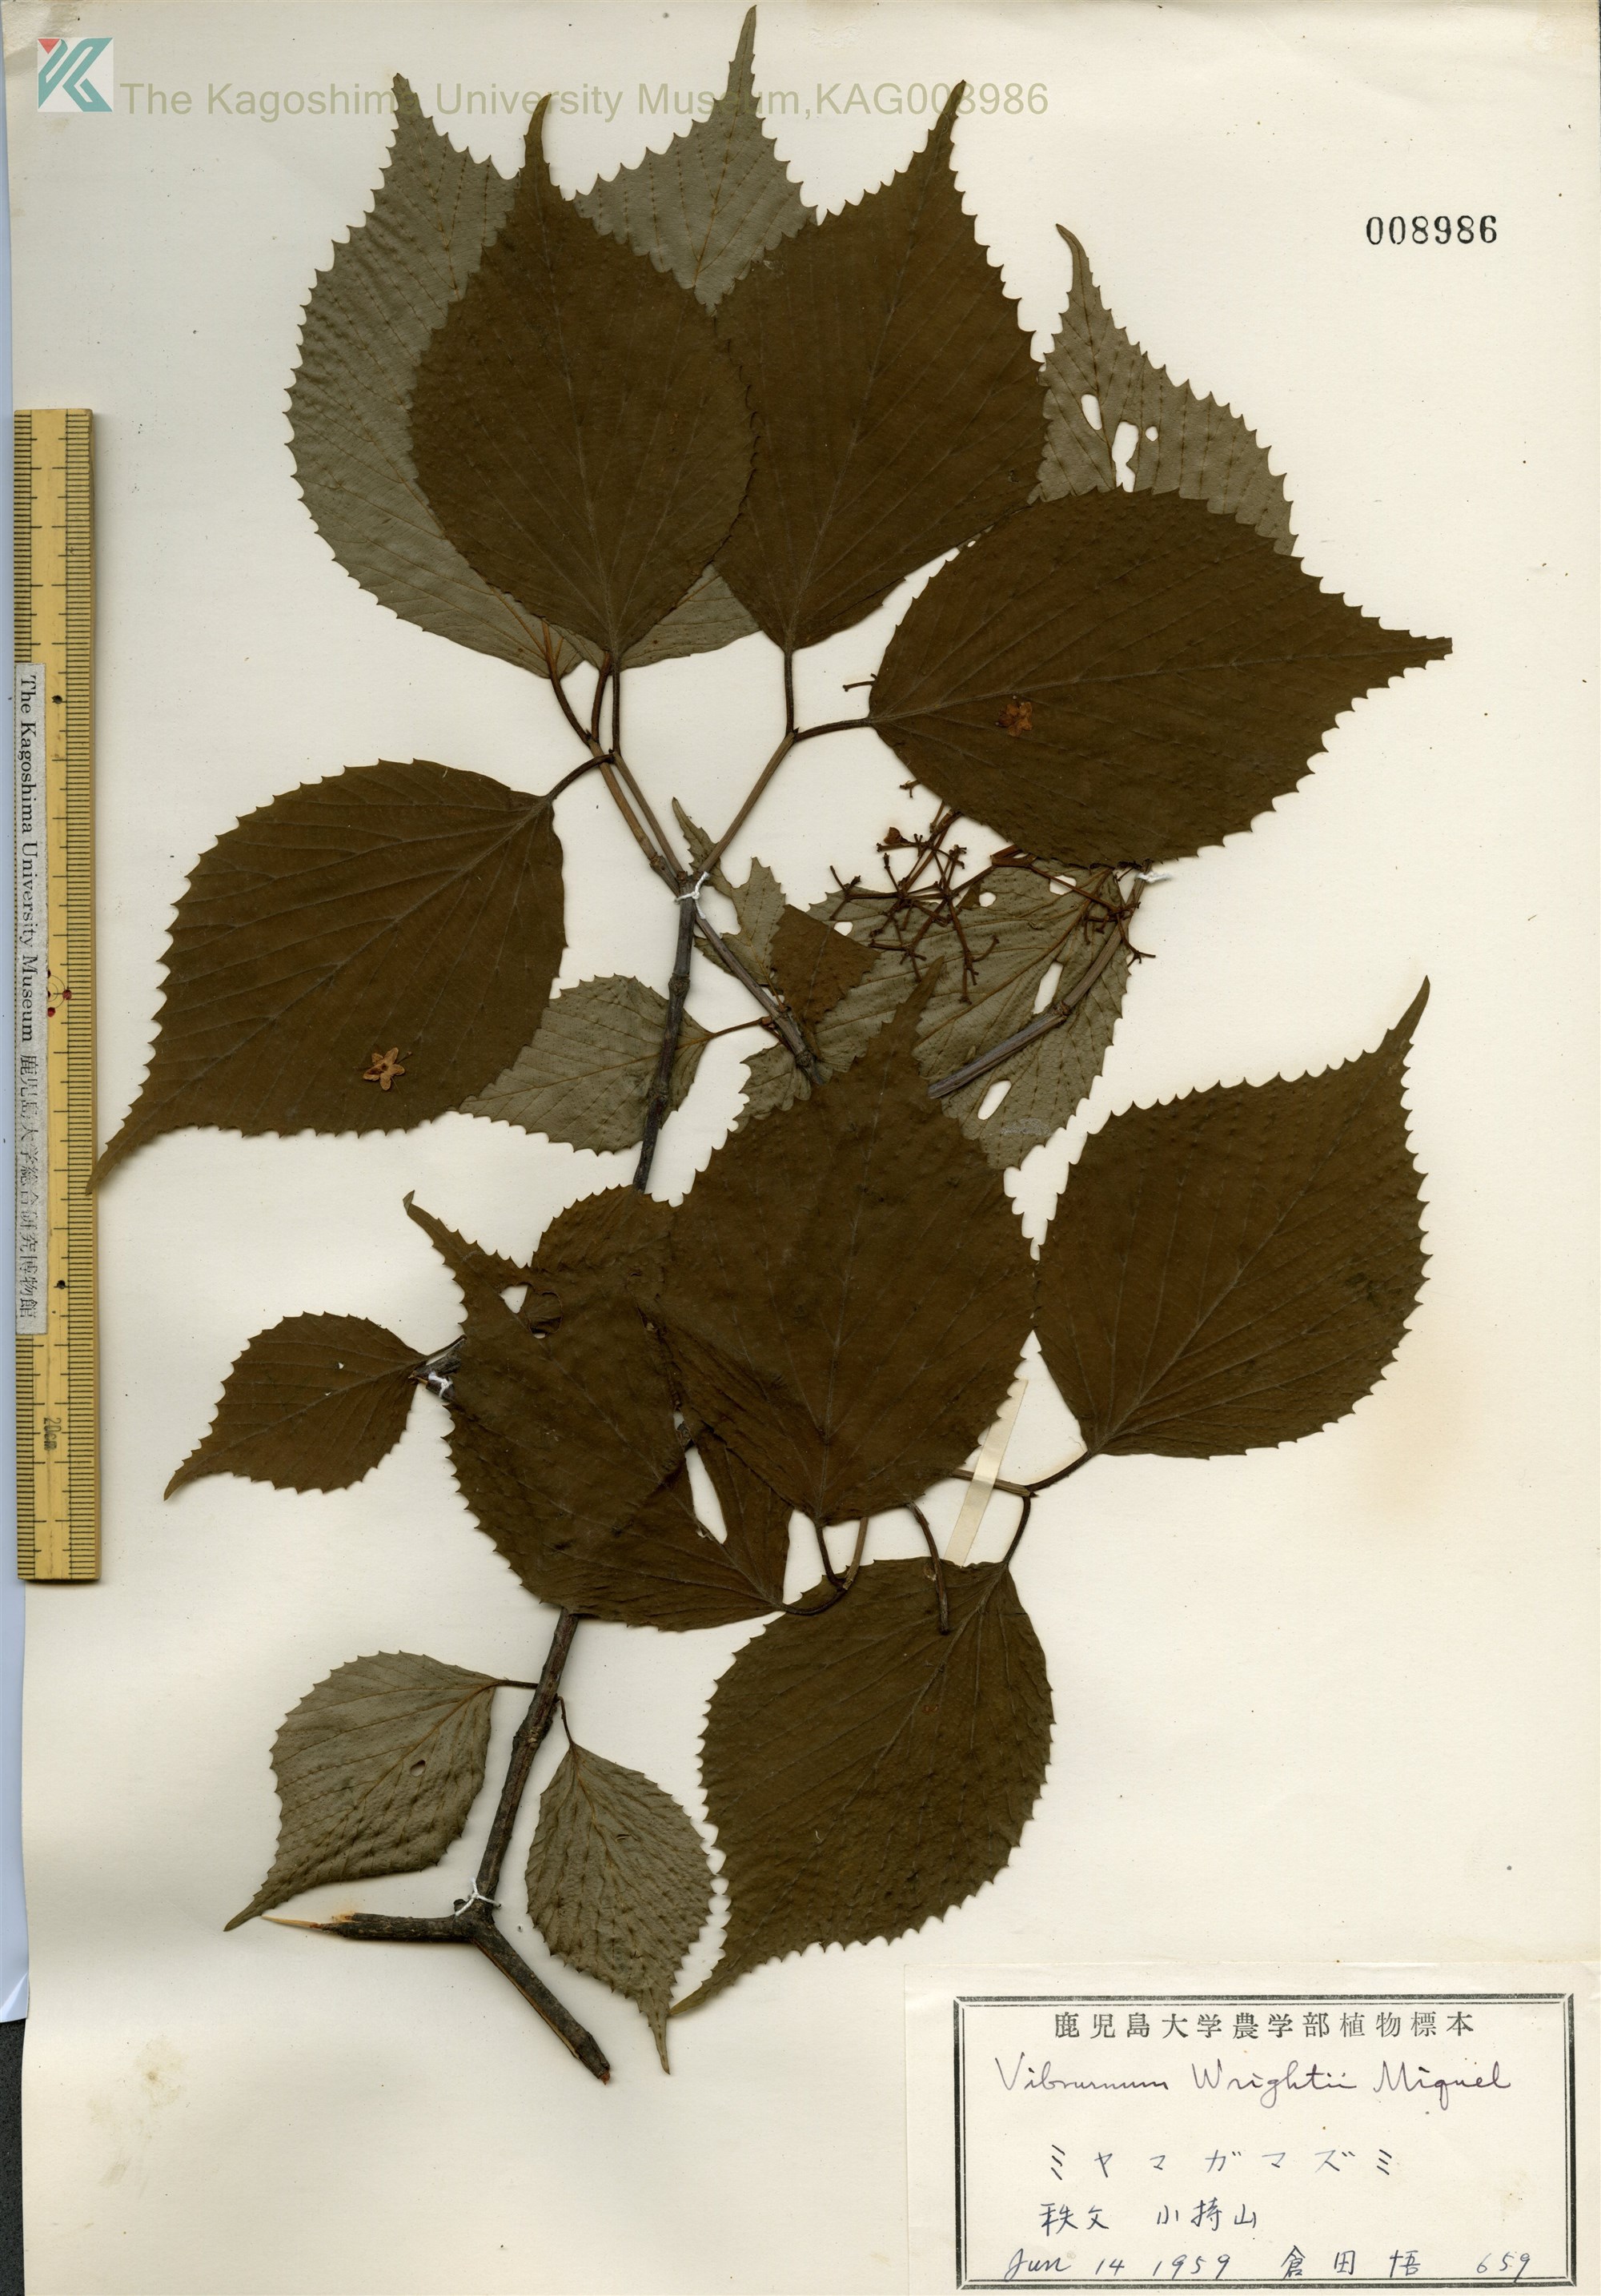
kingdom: Plantae
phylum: Tracheophyta
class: Magnoliopsida
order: Dipsacales
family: Viburnaceae
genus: Viburnum
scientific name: Viburnum wrightii
